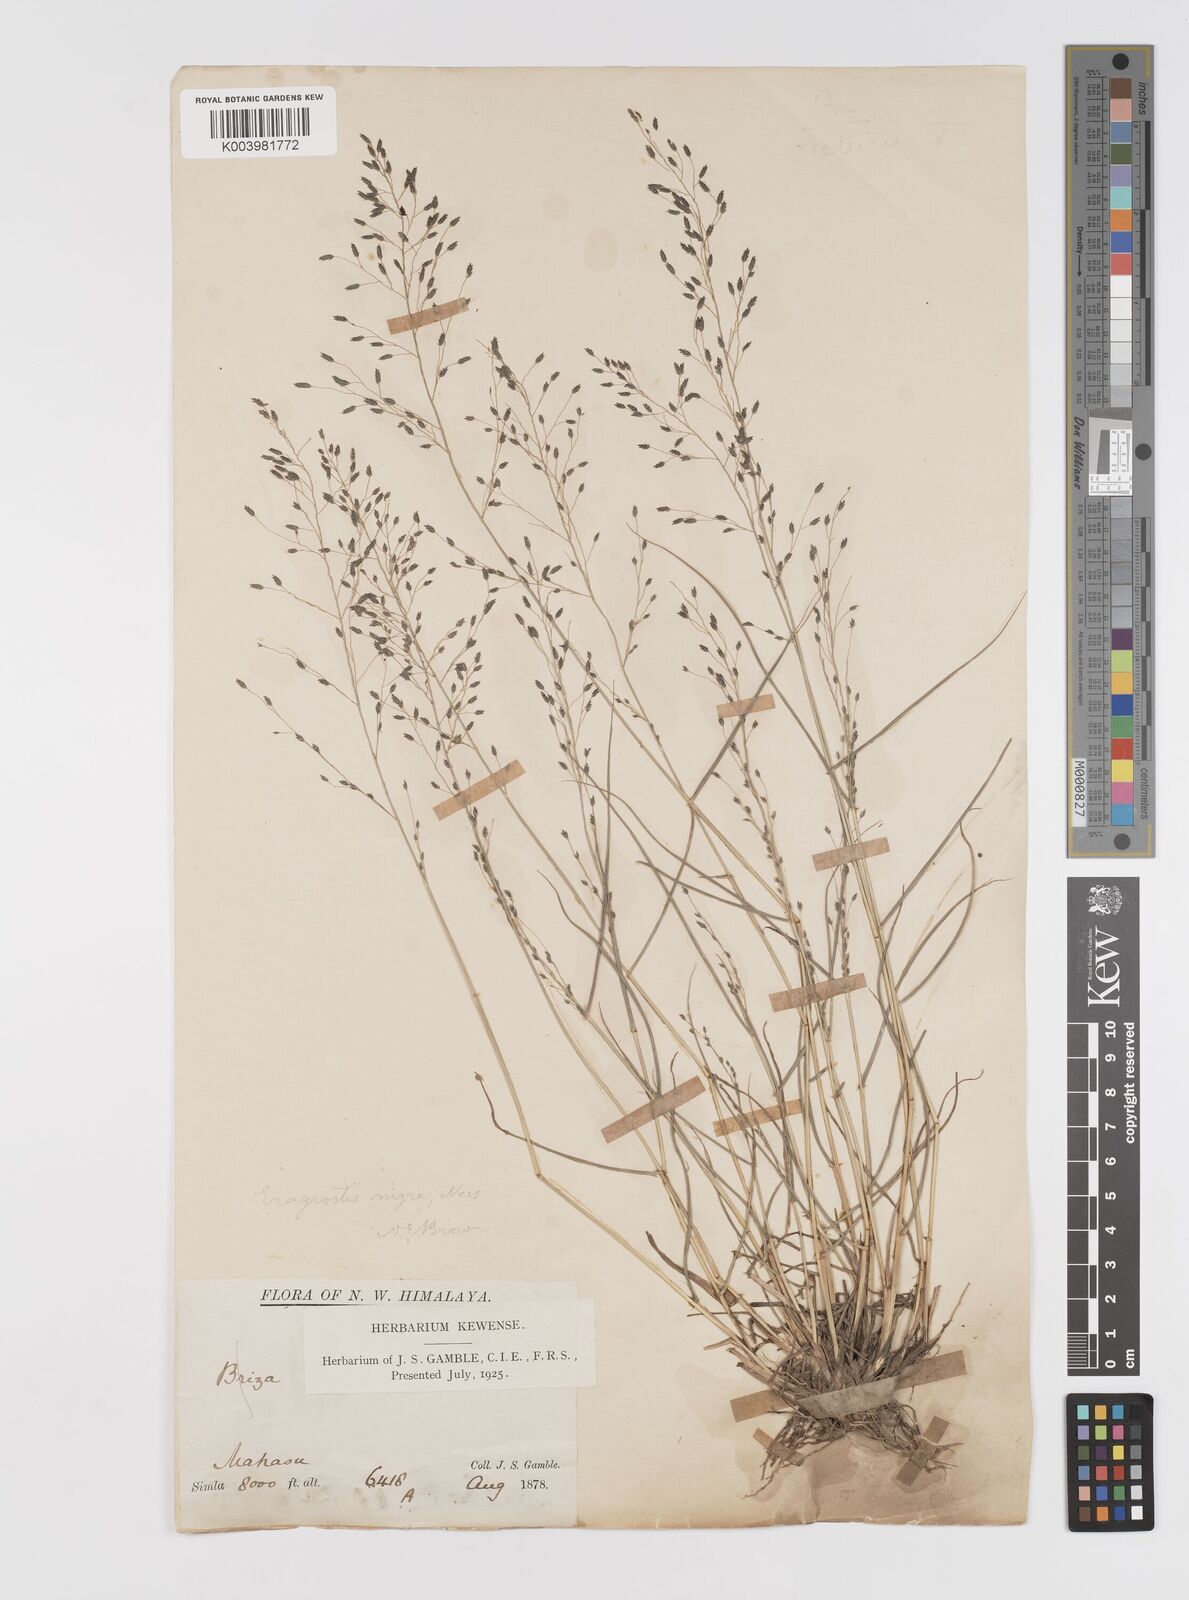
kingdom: Plantae
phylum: Tracheophyta
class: Liliopsida
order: Poales
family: Poaceae
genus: Eragrostis
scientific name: Eragrostis nigra
